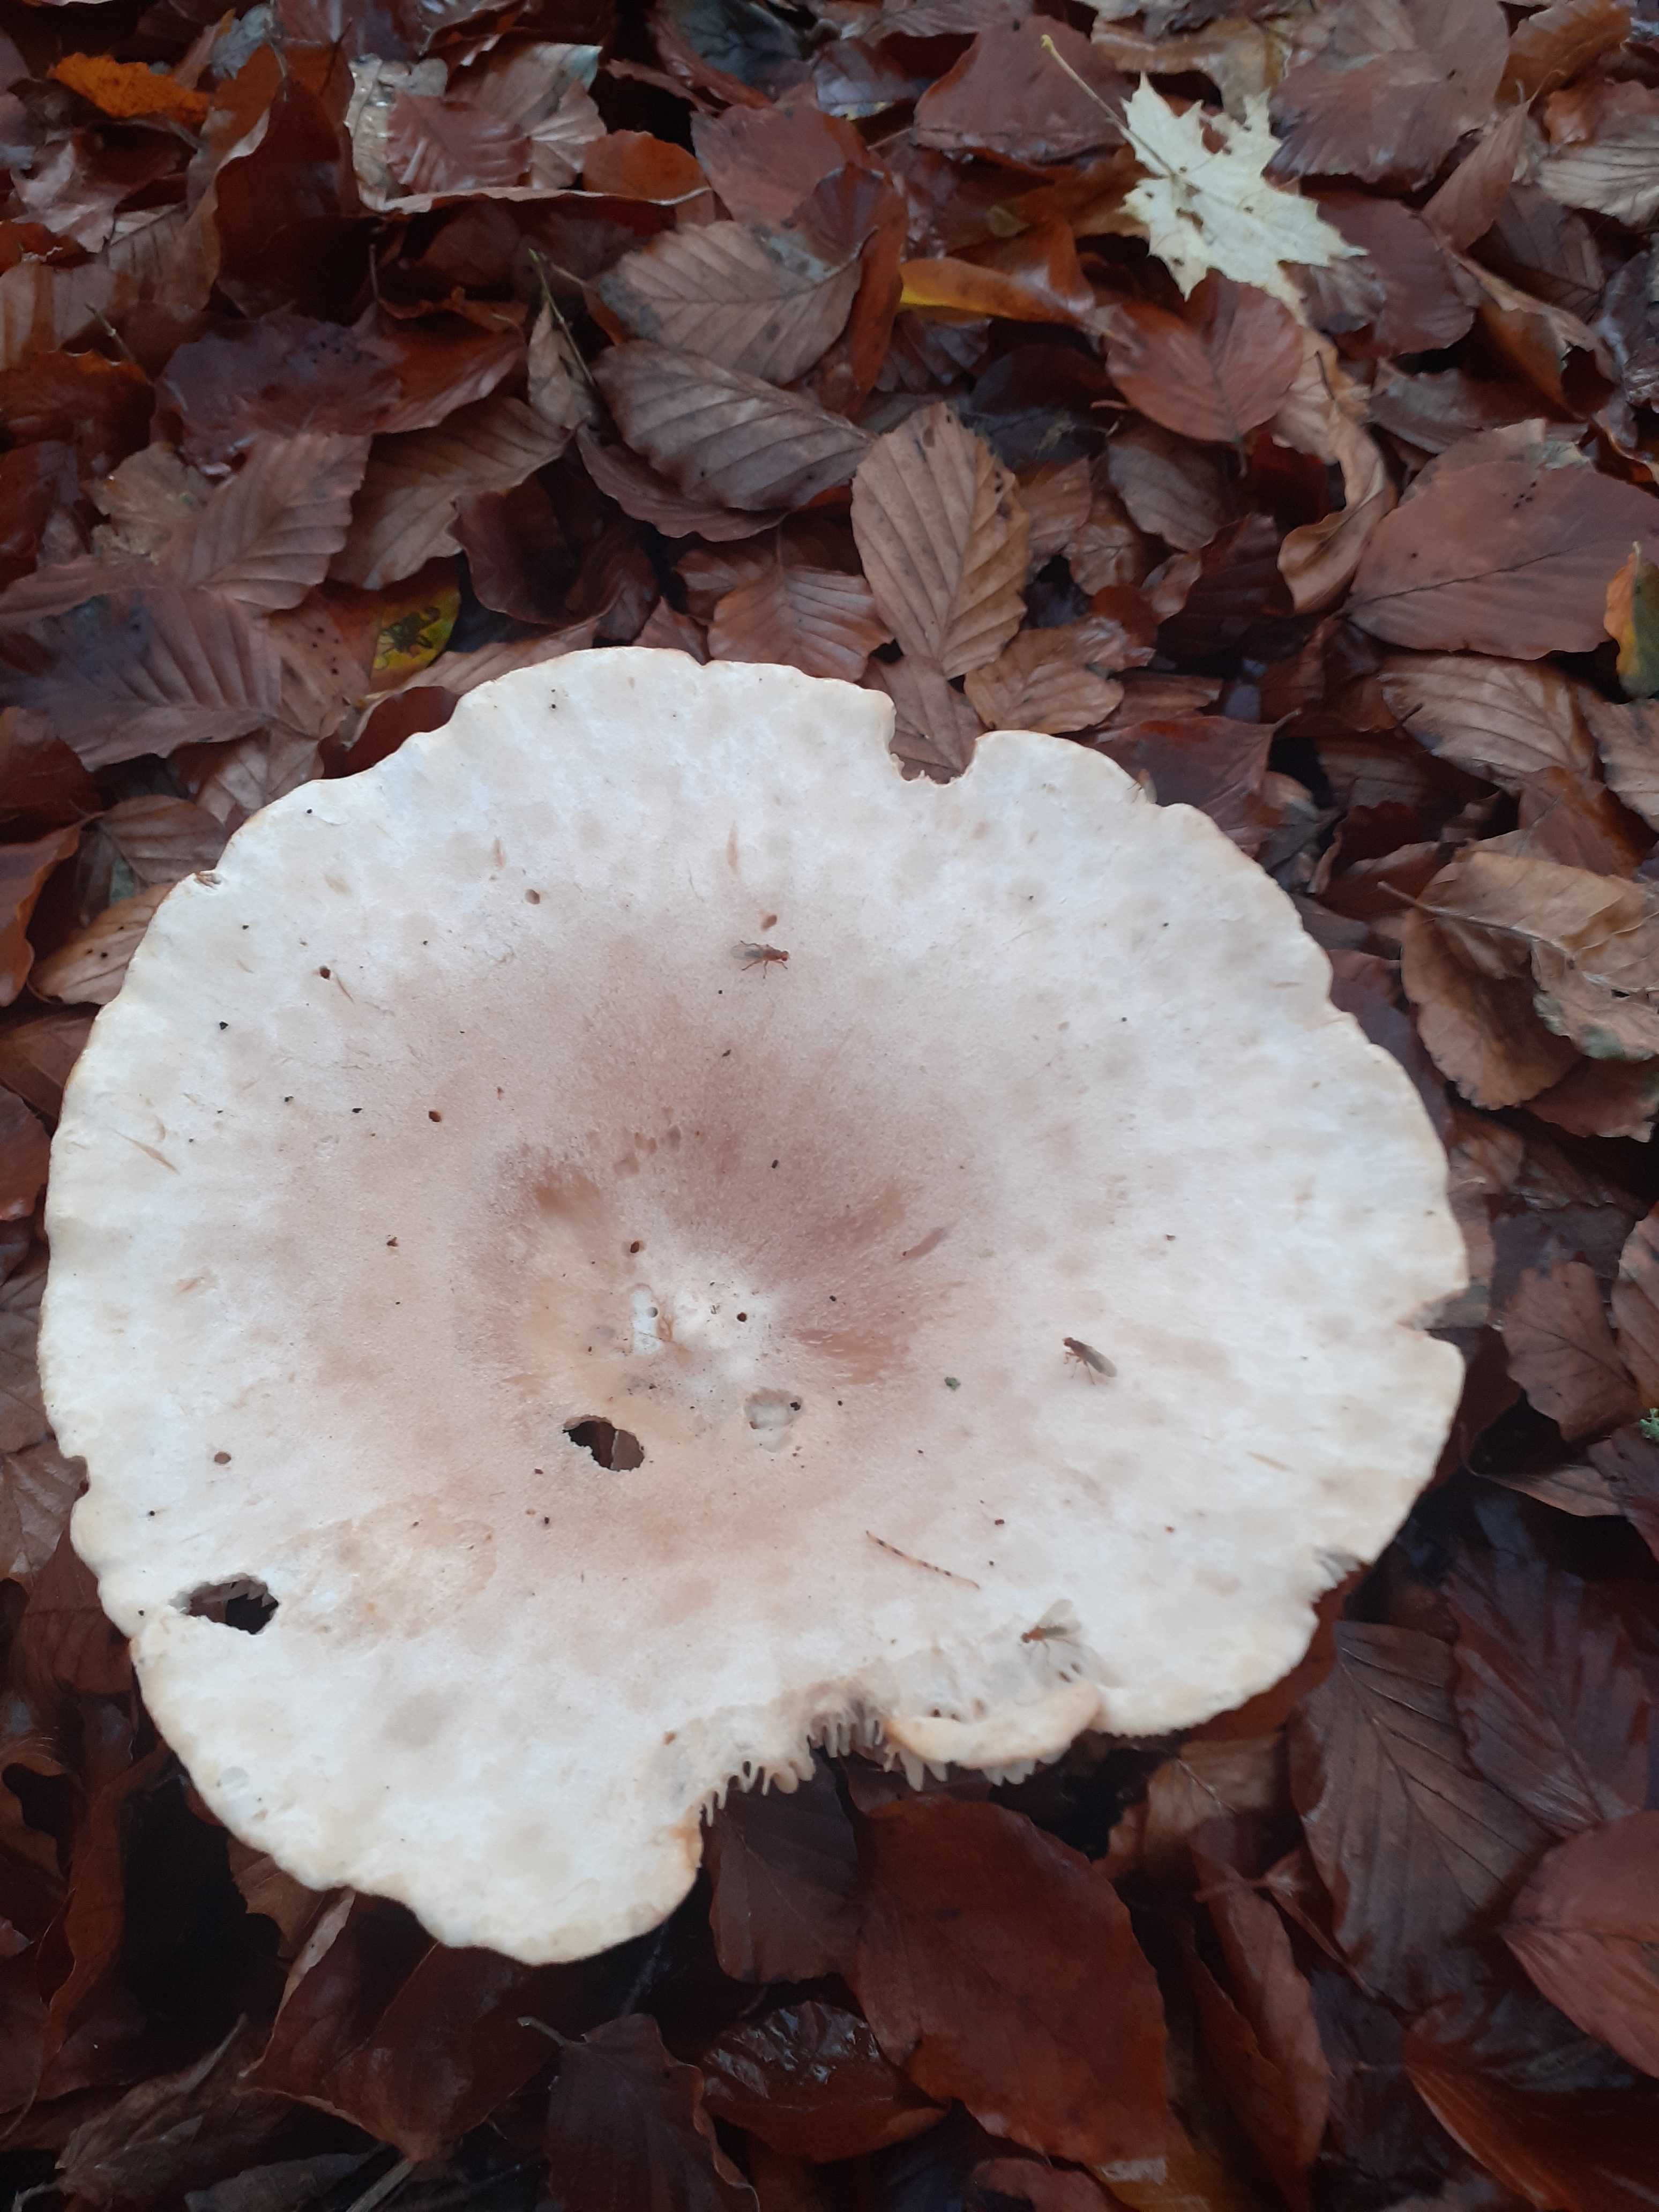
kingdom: Fungi
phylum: Basidiomycota
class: Agaricomycetes
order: Agaricales
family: Tricholomataceae
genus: Infundibulicybe
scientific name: Infundibulicybe geotropa
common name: stor tragthat
